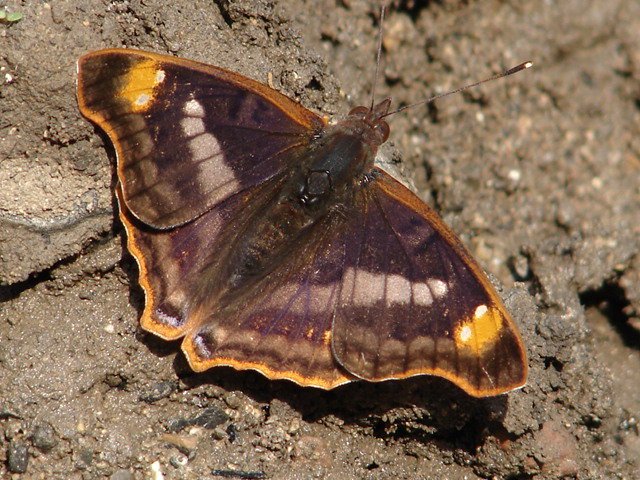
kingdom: Animalia
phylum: Arthropoda
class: Insecta
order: Lepidoptera
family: Nymphalidae
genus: Doxocopa
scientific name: Doxocopa pavon
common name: Pavon Emperor
